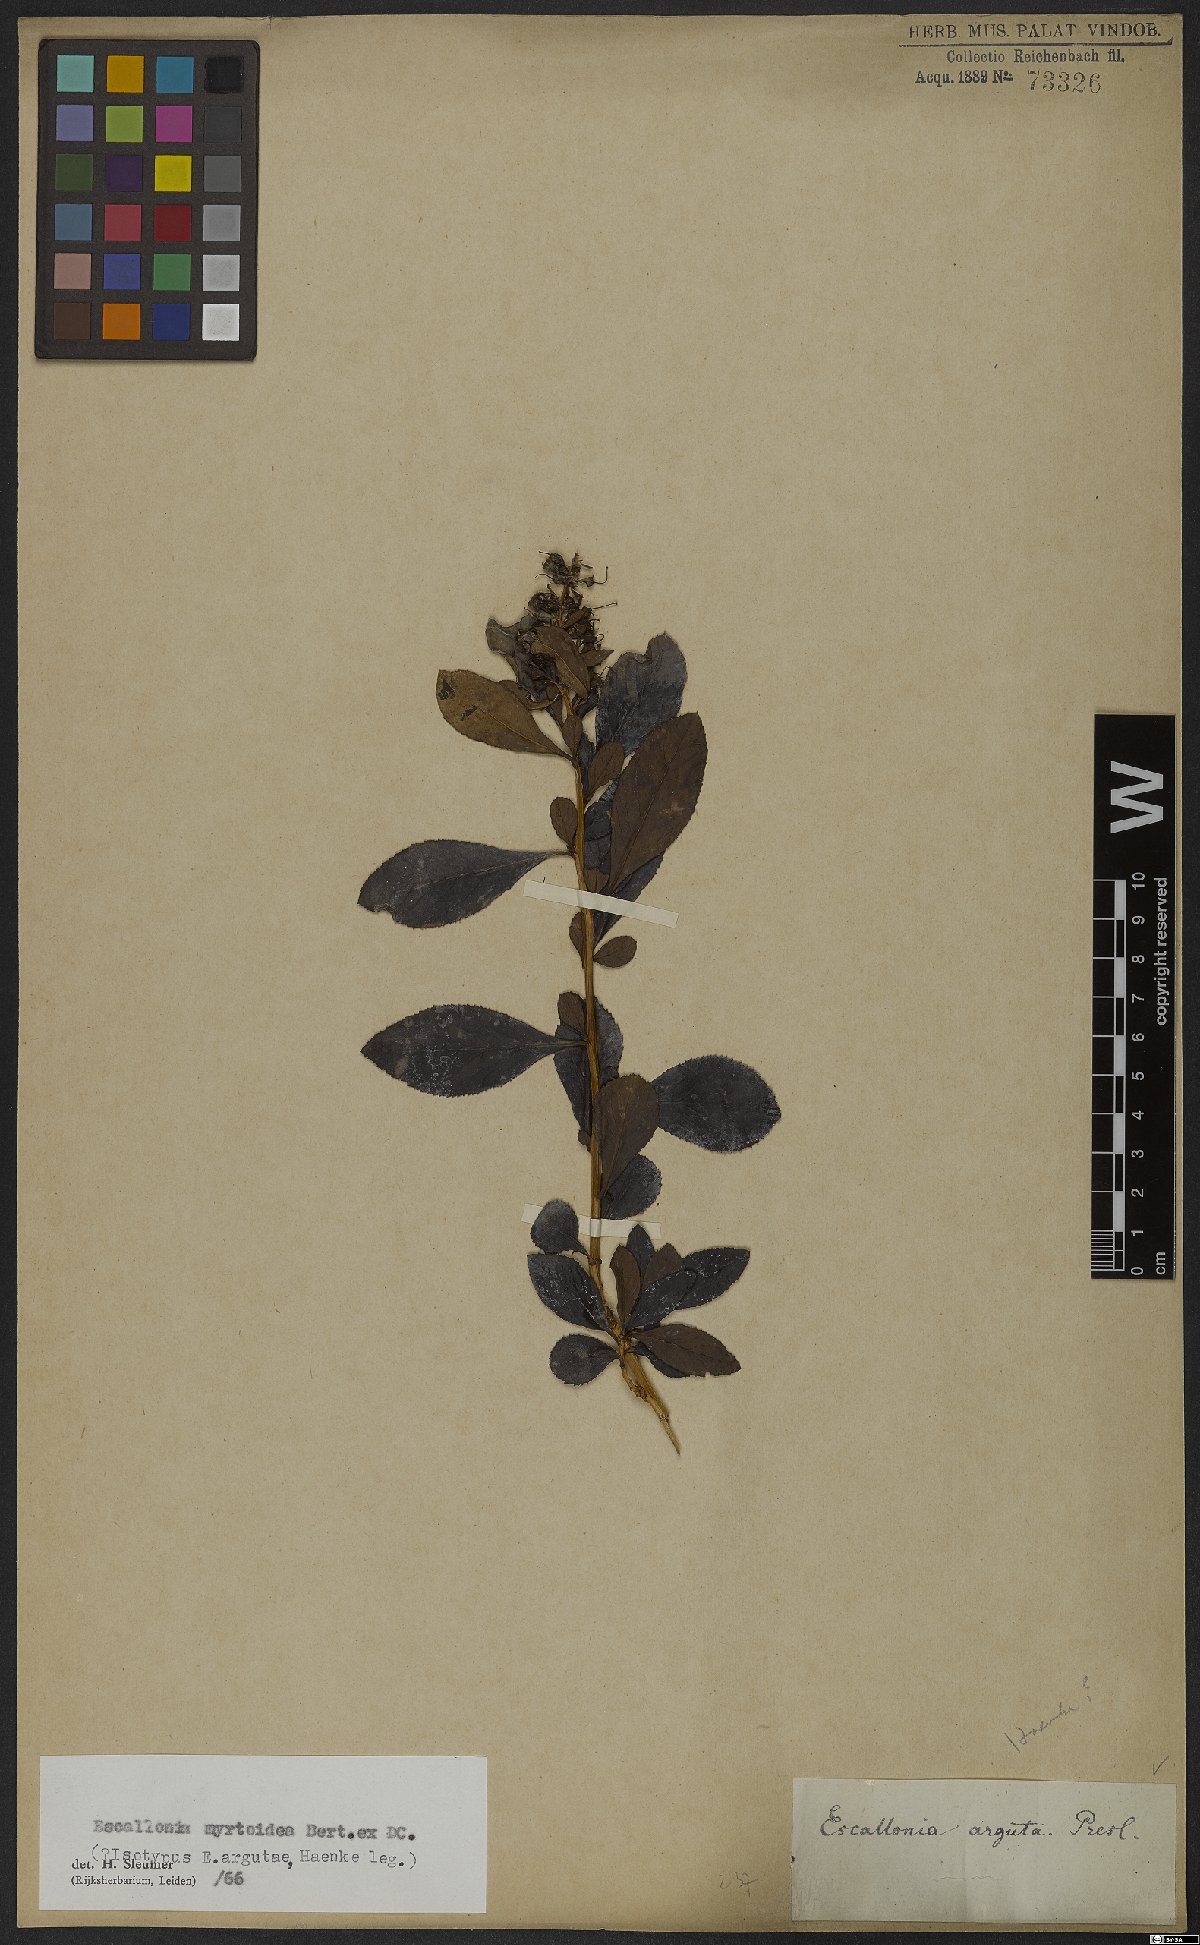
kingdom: Plantae
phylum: Tracheophyta
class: Magnoliopsida
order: Escalloniales
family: Escalloniaceae
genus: Escallonia
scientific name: Escallonia myrtoidea
